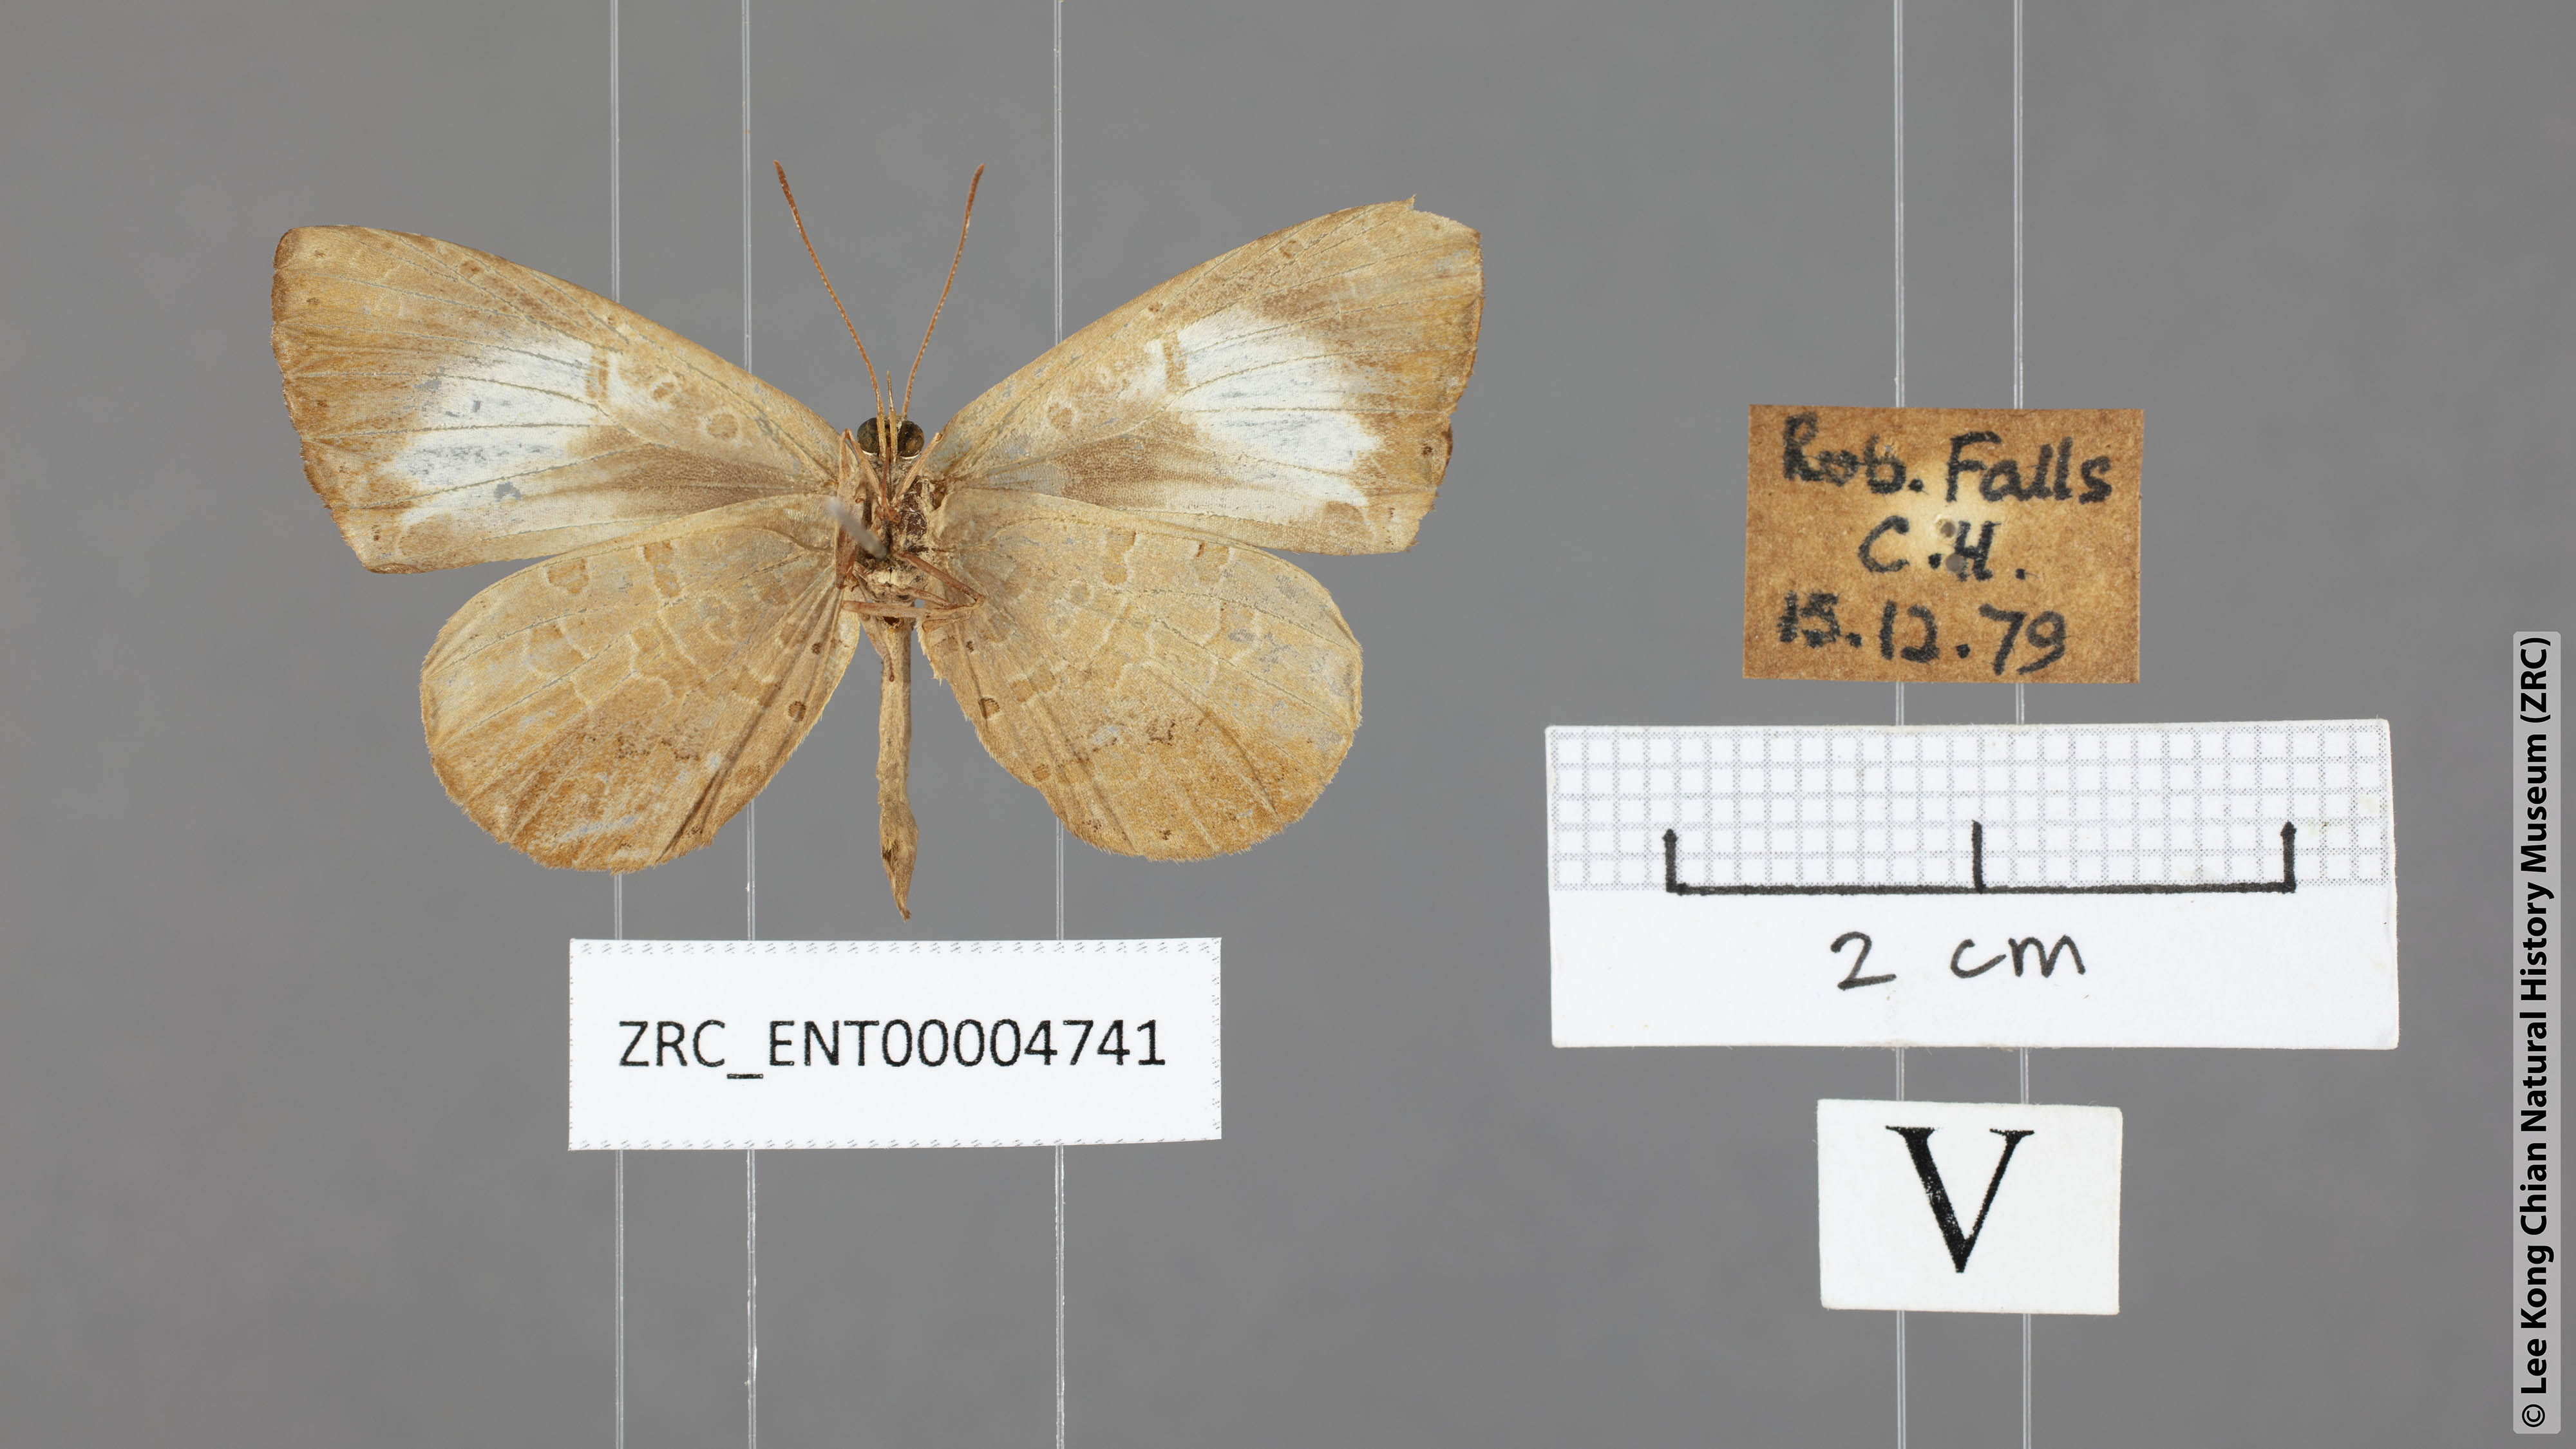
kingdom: Animalia
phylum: Arthropoda
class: Insecta
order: Lepidoptera
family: Lycaenidae
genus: Miletus
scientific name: Miletus nymphis
